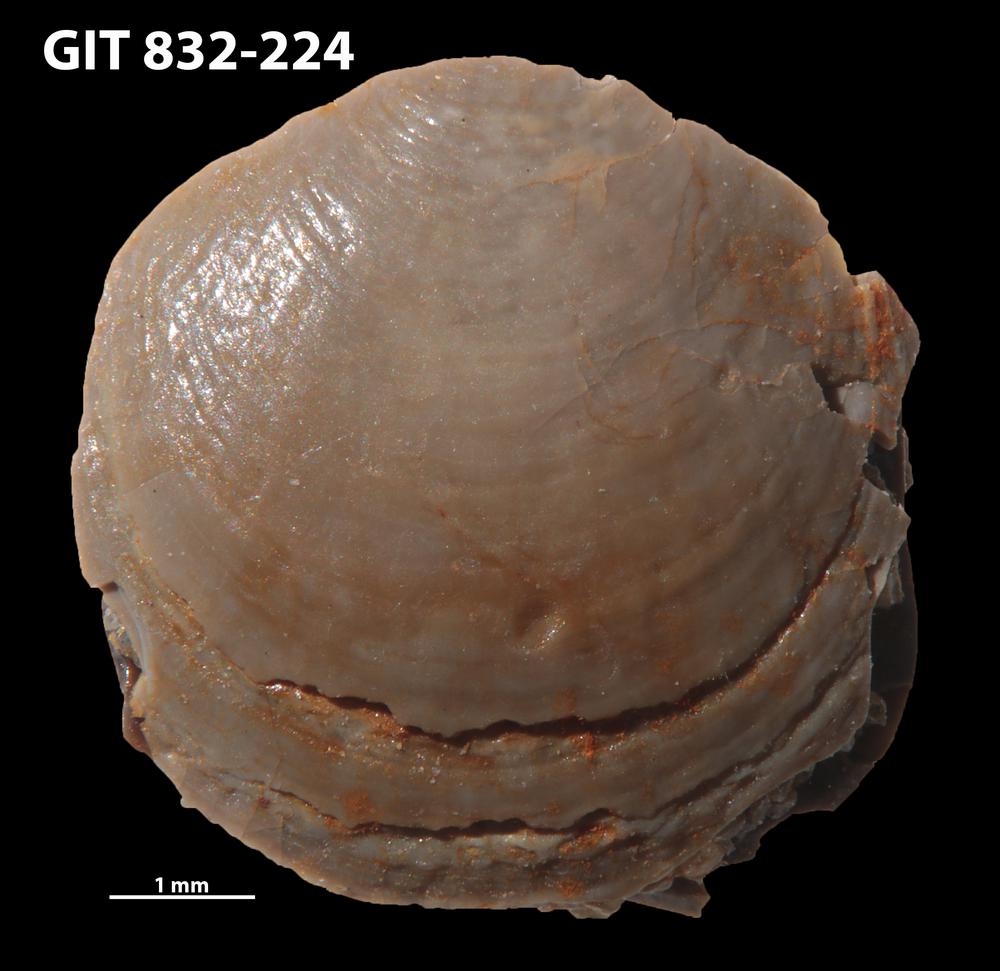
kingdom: Animalia
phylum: Brachiopoda
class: Lingulata
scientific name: Lingulata
